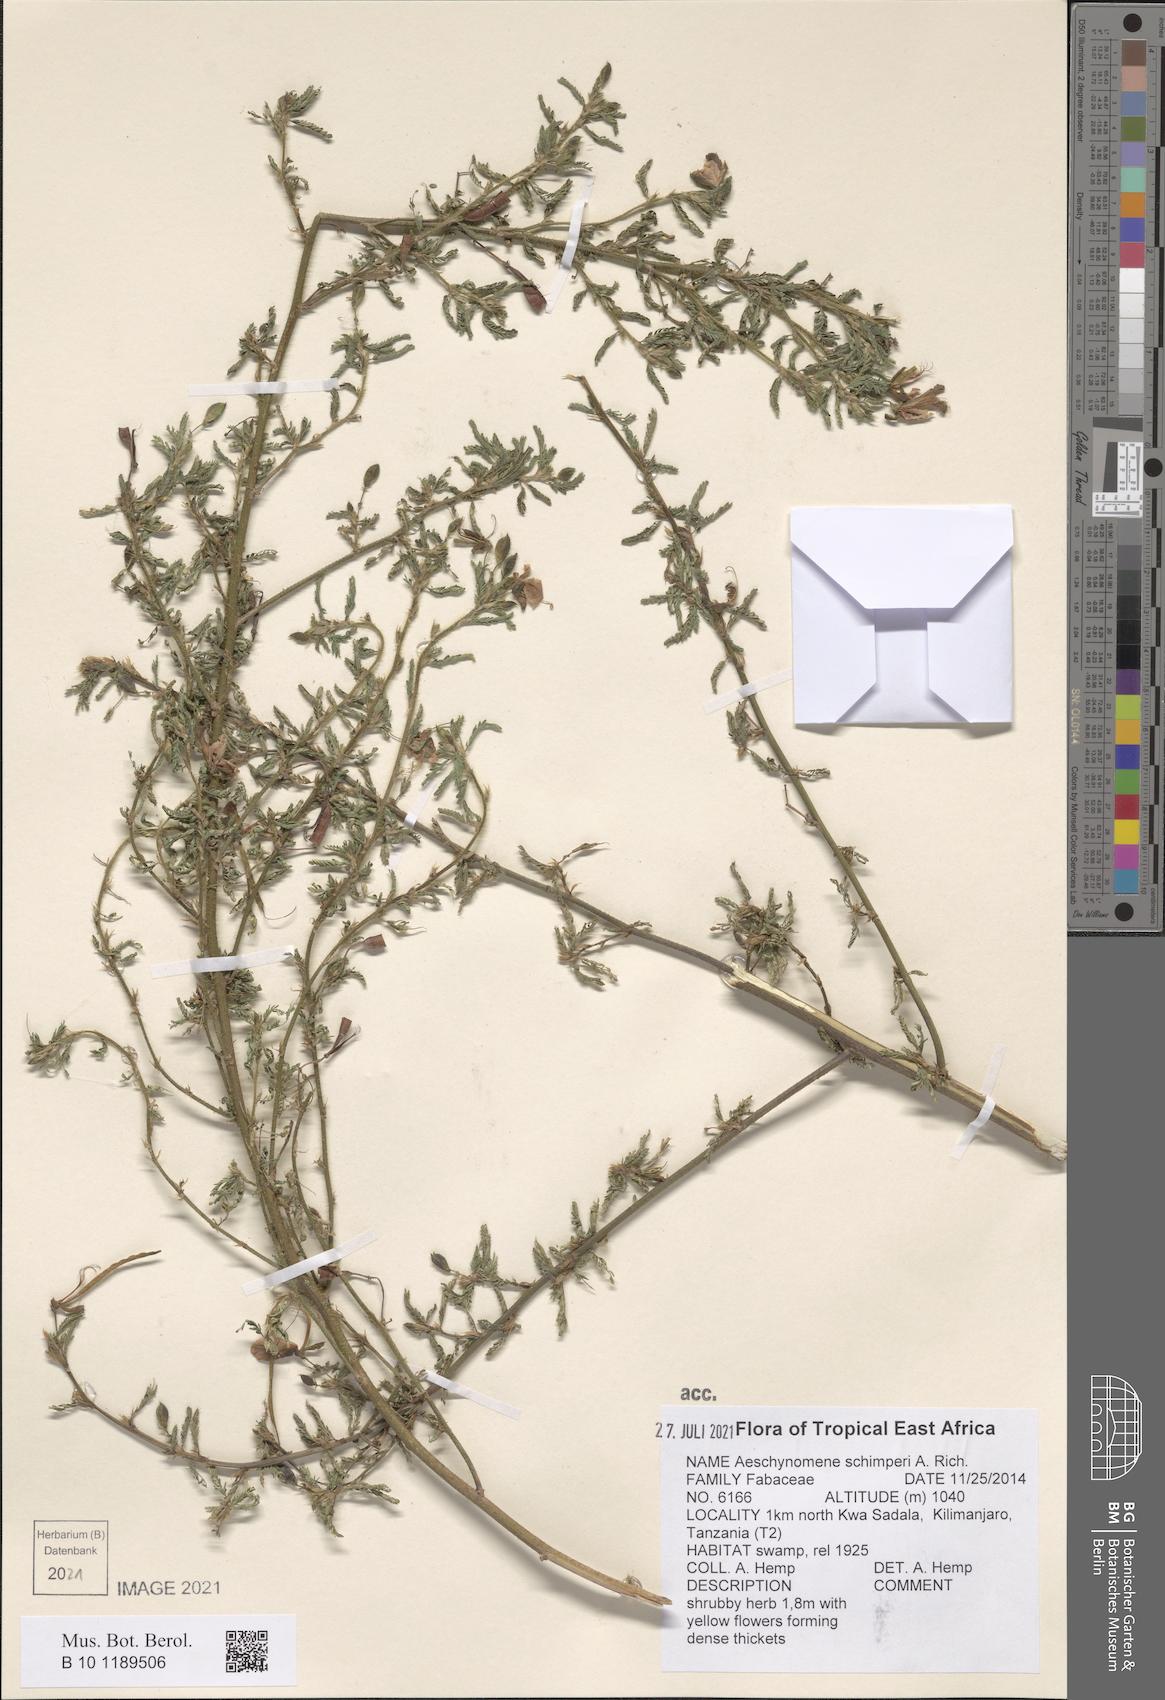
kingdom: Plantae
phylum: Tracheophyta
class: Magnoliopsida
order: Fabales
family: Fabaceae
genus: Aeschynomene
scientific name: Aeschynomene schimperi
